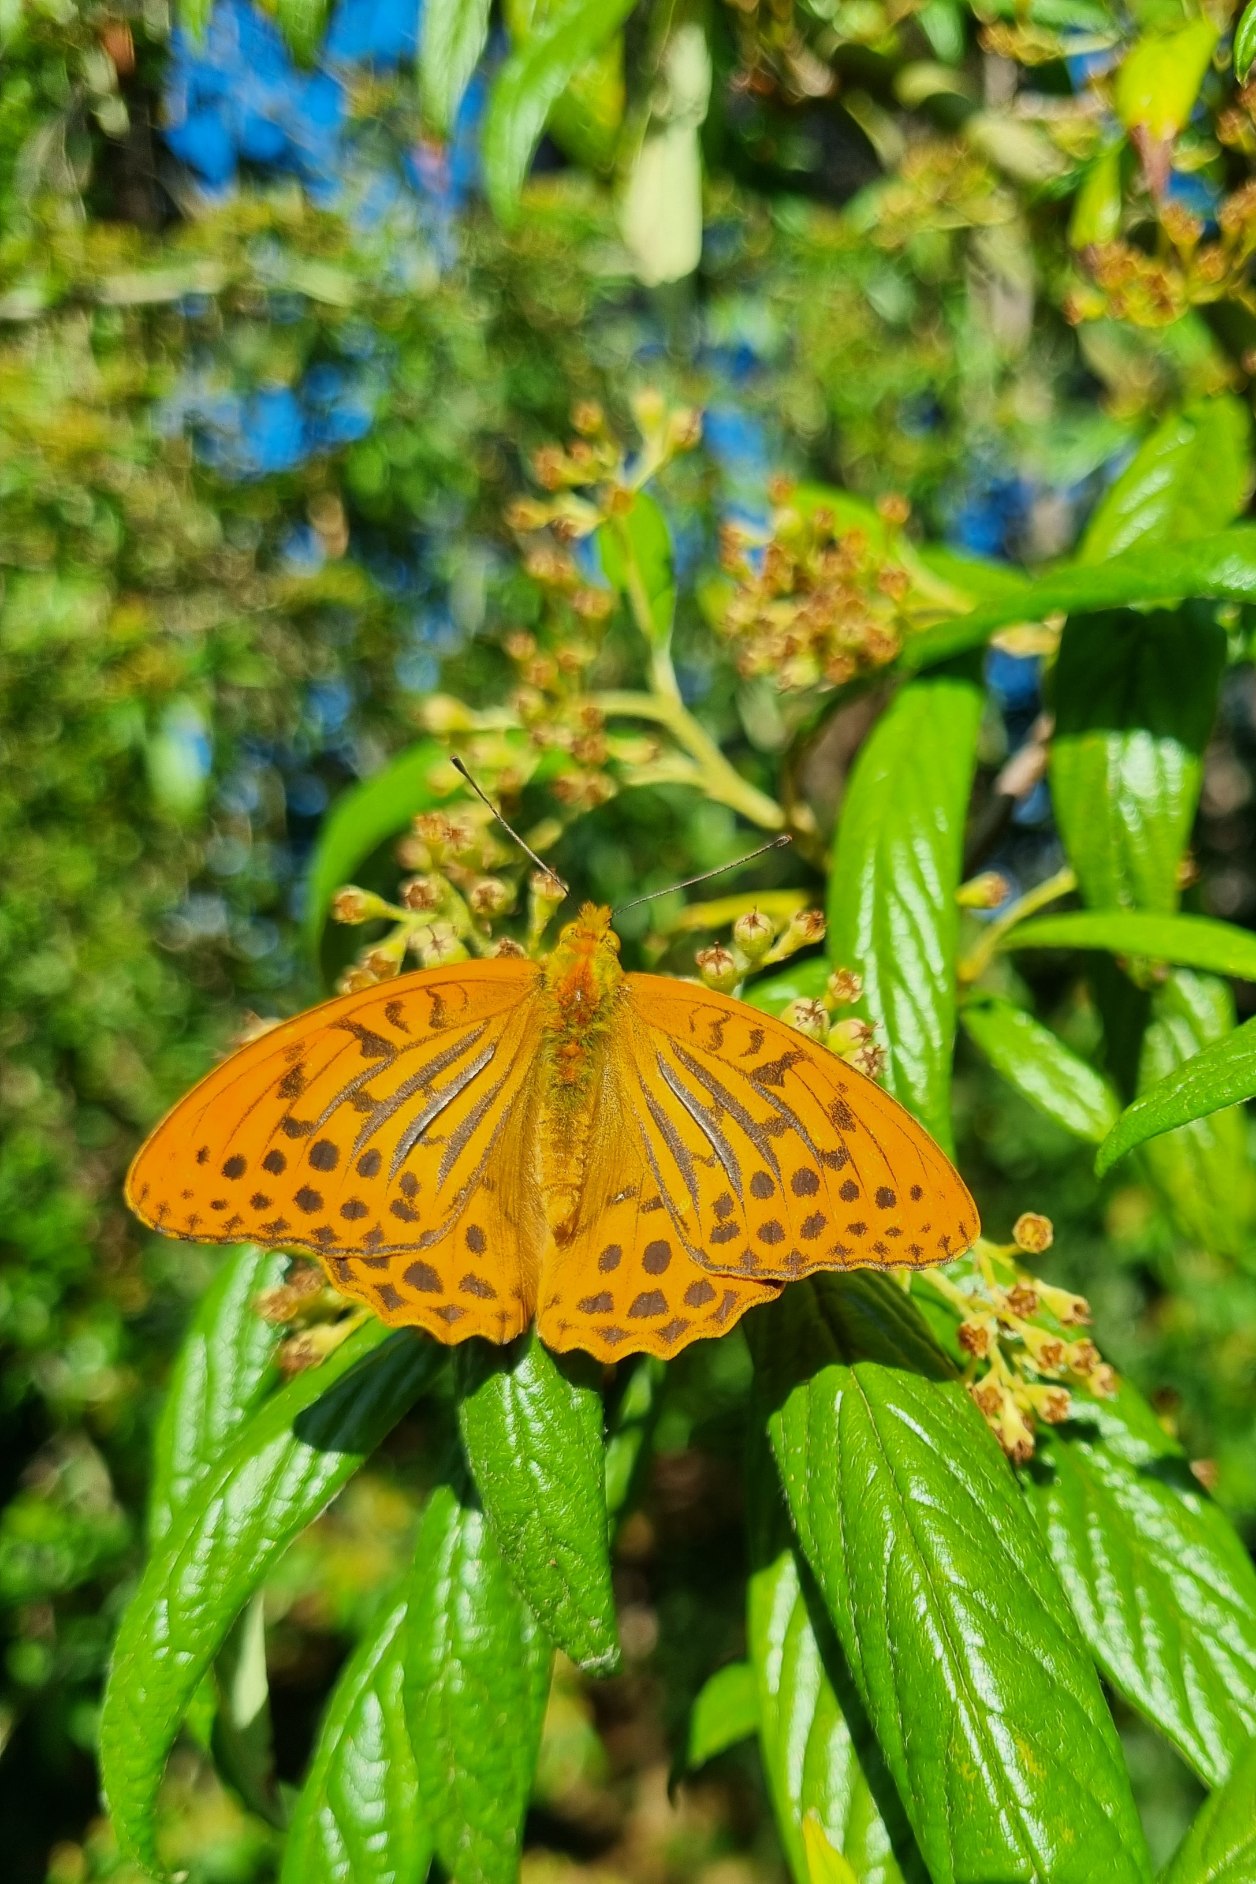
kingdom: Animalia
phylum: Arthropoda
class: Insecta
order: Lepidoptera
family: Nymphalidae
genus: Argynnis
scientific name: Argynnis paphia
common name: Kejserkåbe
